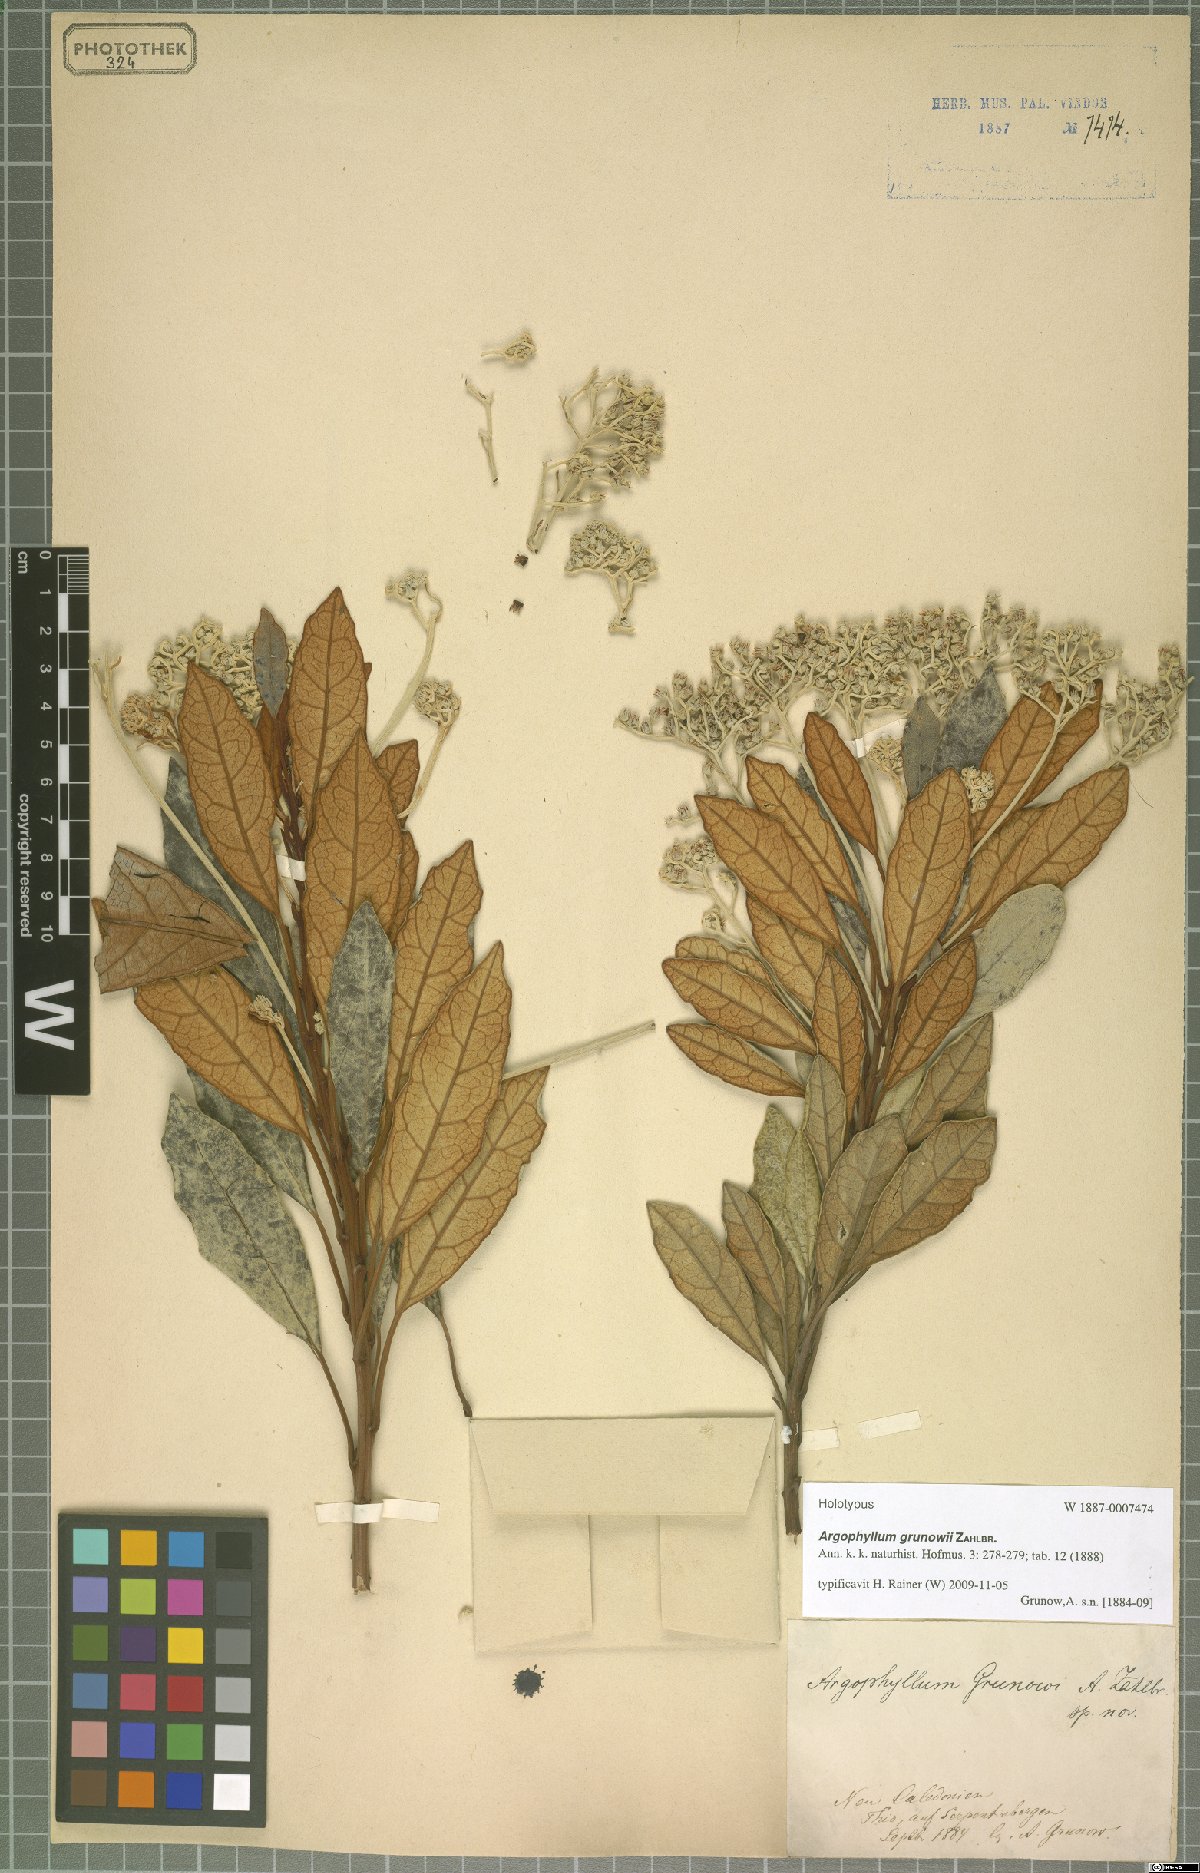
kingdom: Plantae
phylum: Tracheophyta
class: Magnoliopsida
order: Asterales
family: Argophyllaceae
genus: Argophyllum
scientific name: Argophyllum grunowii
